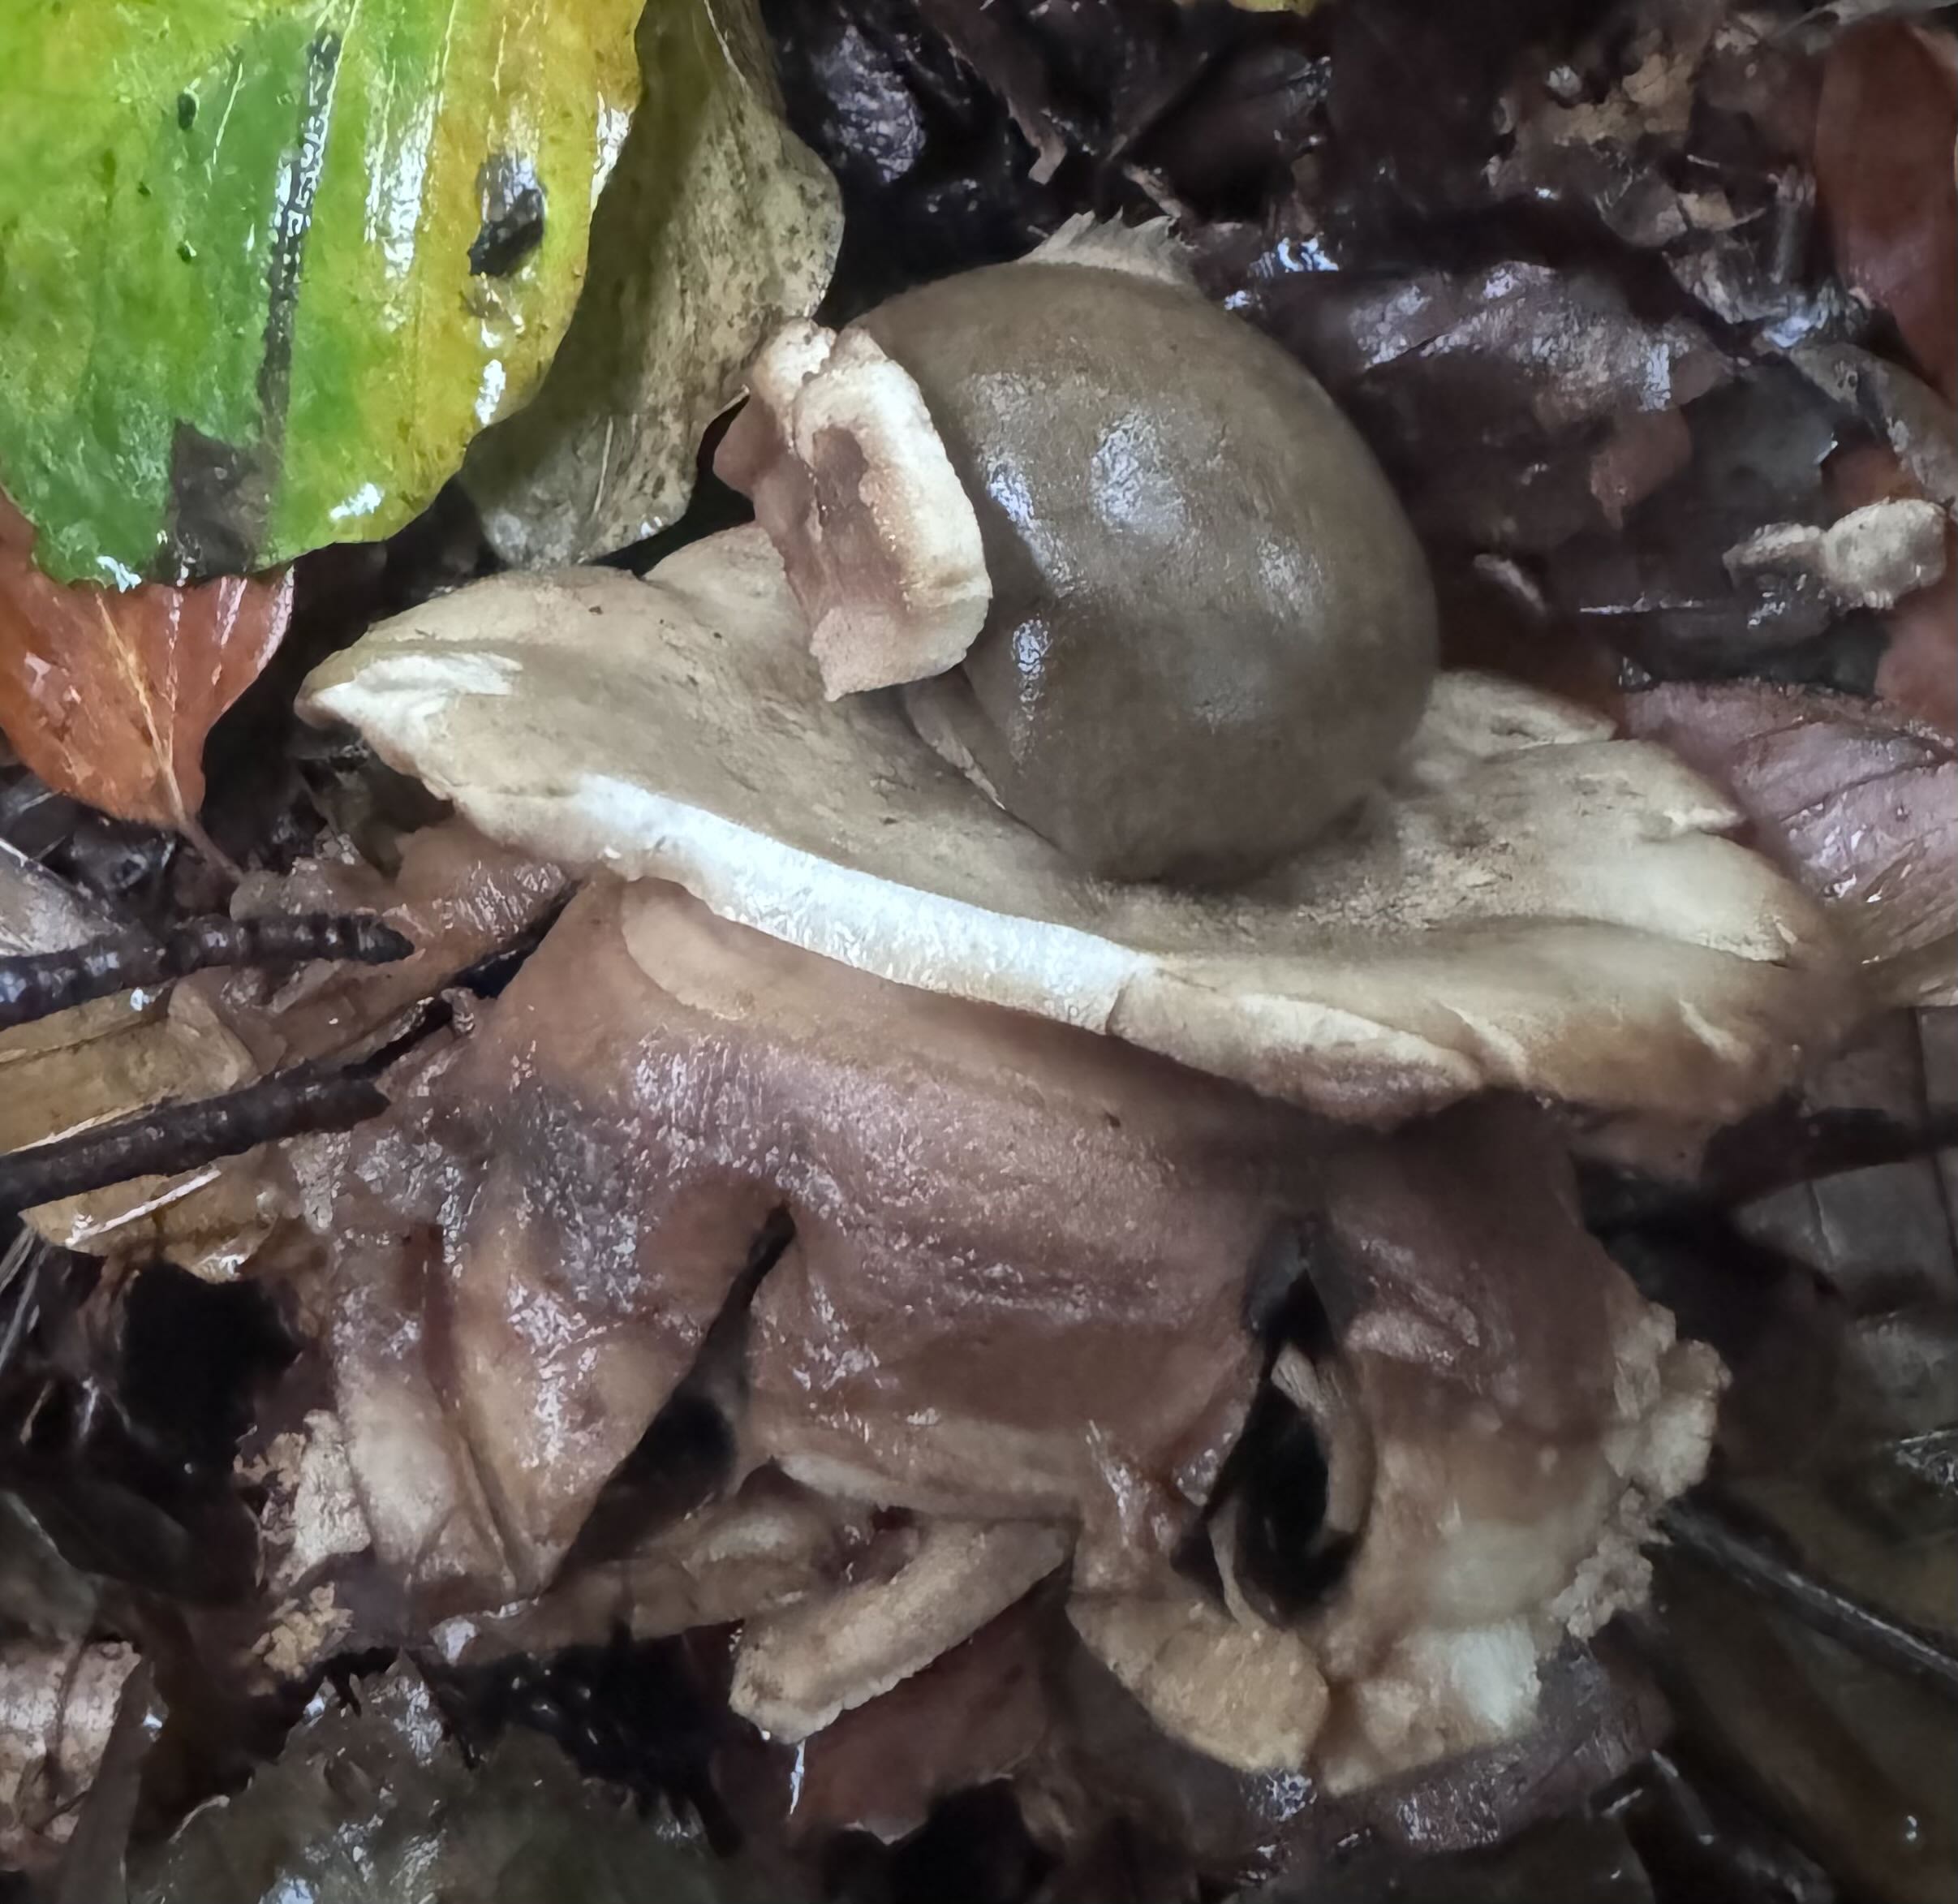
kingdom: Fungi
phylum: Basidiomycota
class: Agaricomycetes
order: Geastrales
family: Geastraceae
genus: Geastrum
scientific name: Geastrum michelianum
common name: kødet stjernebold
